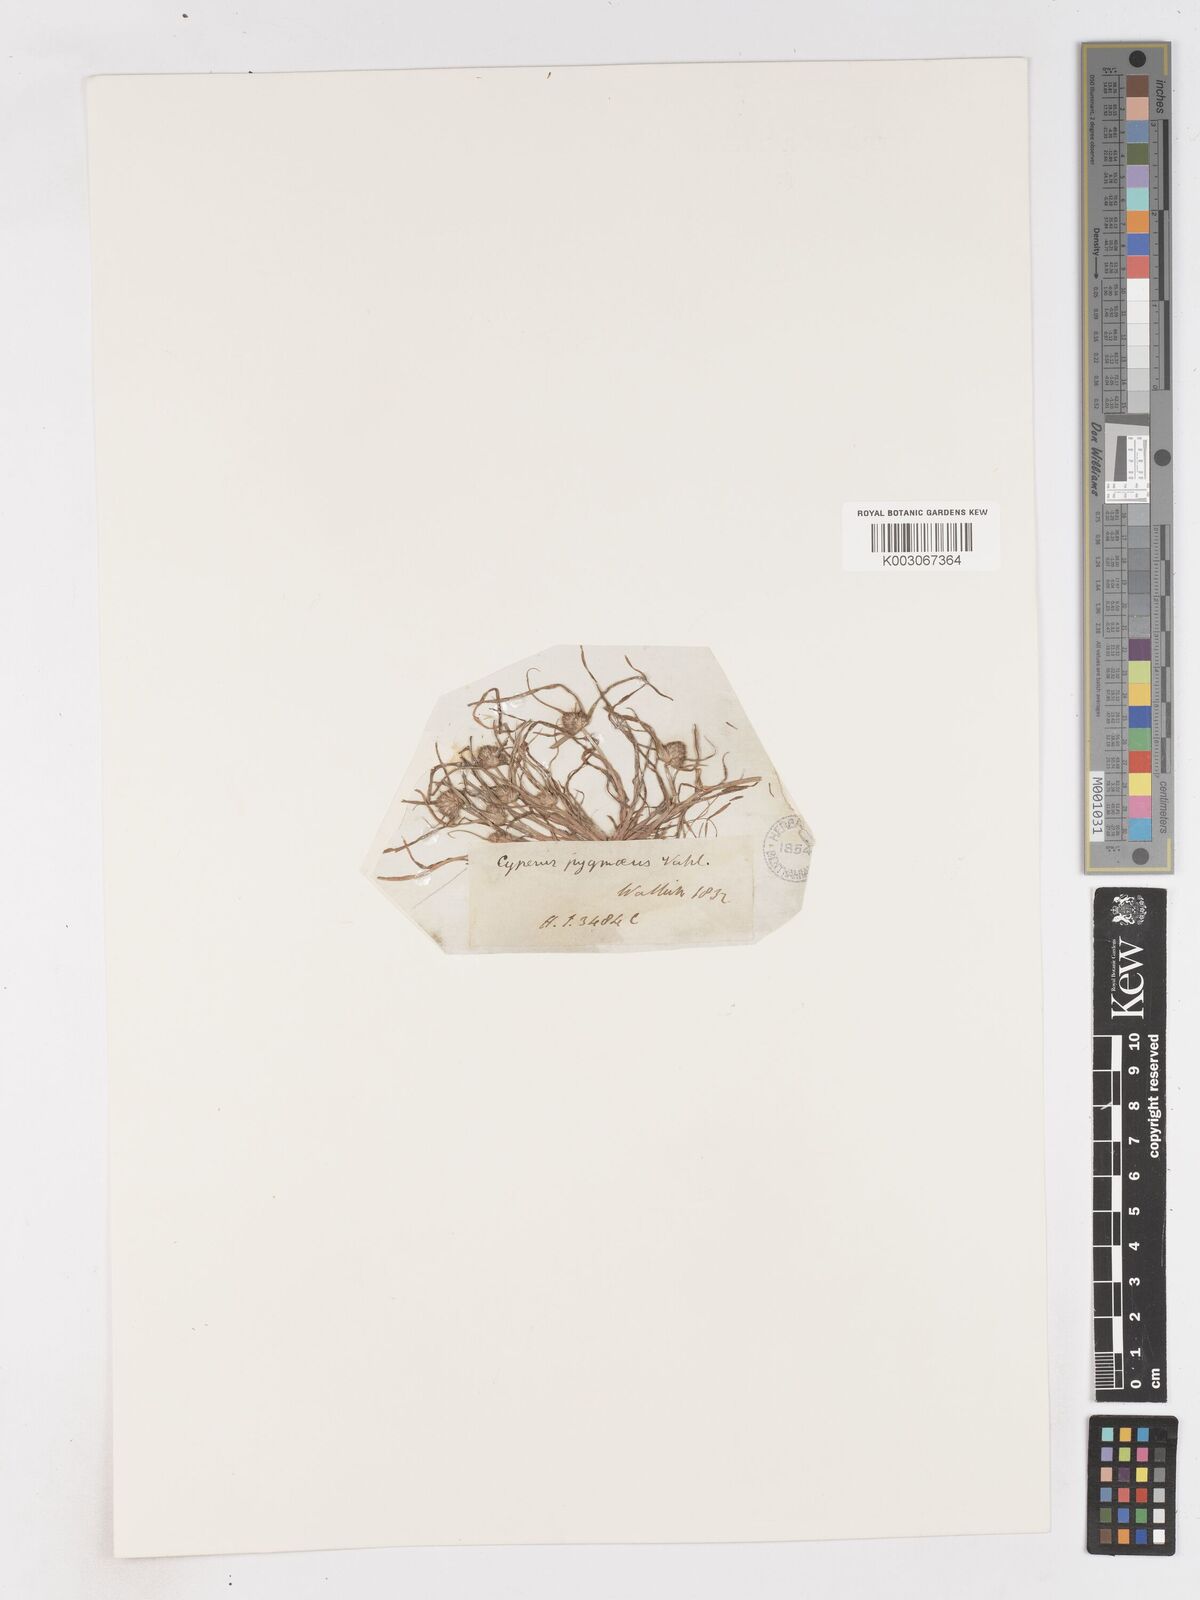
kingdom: Plantae
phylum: Tracheophyta
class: Liliopsida
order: Poales
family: Cyperaceae
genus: Cyperus
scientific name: Cyperus michelianus
